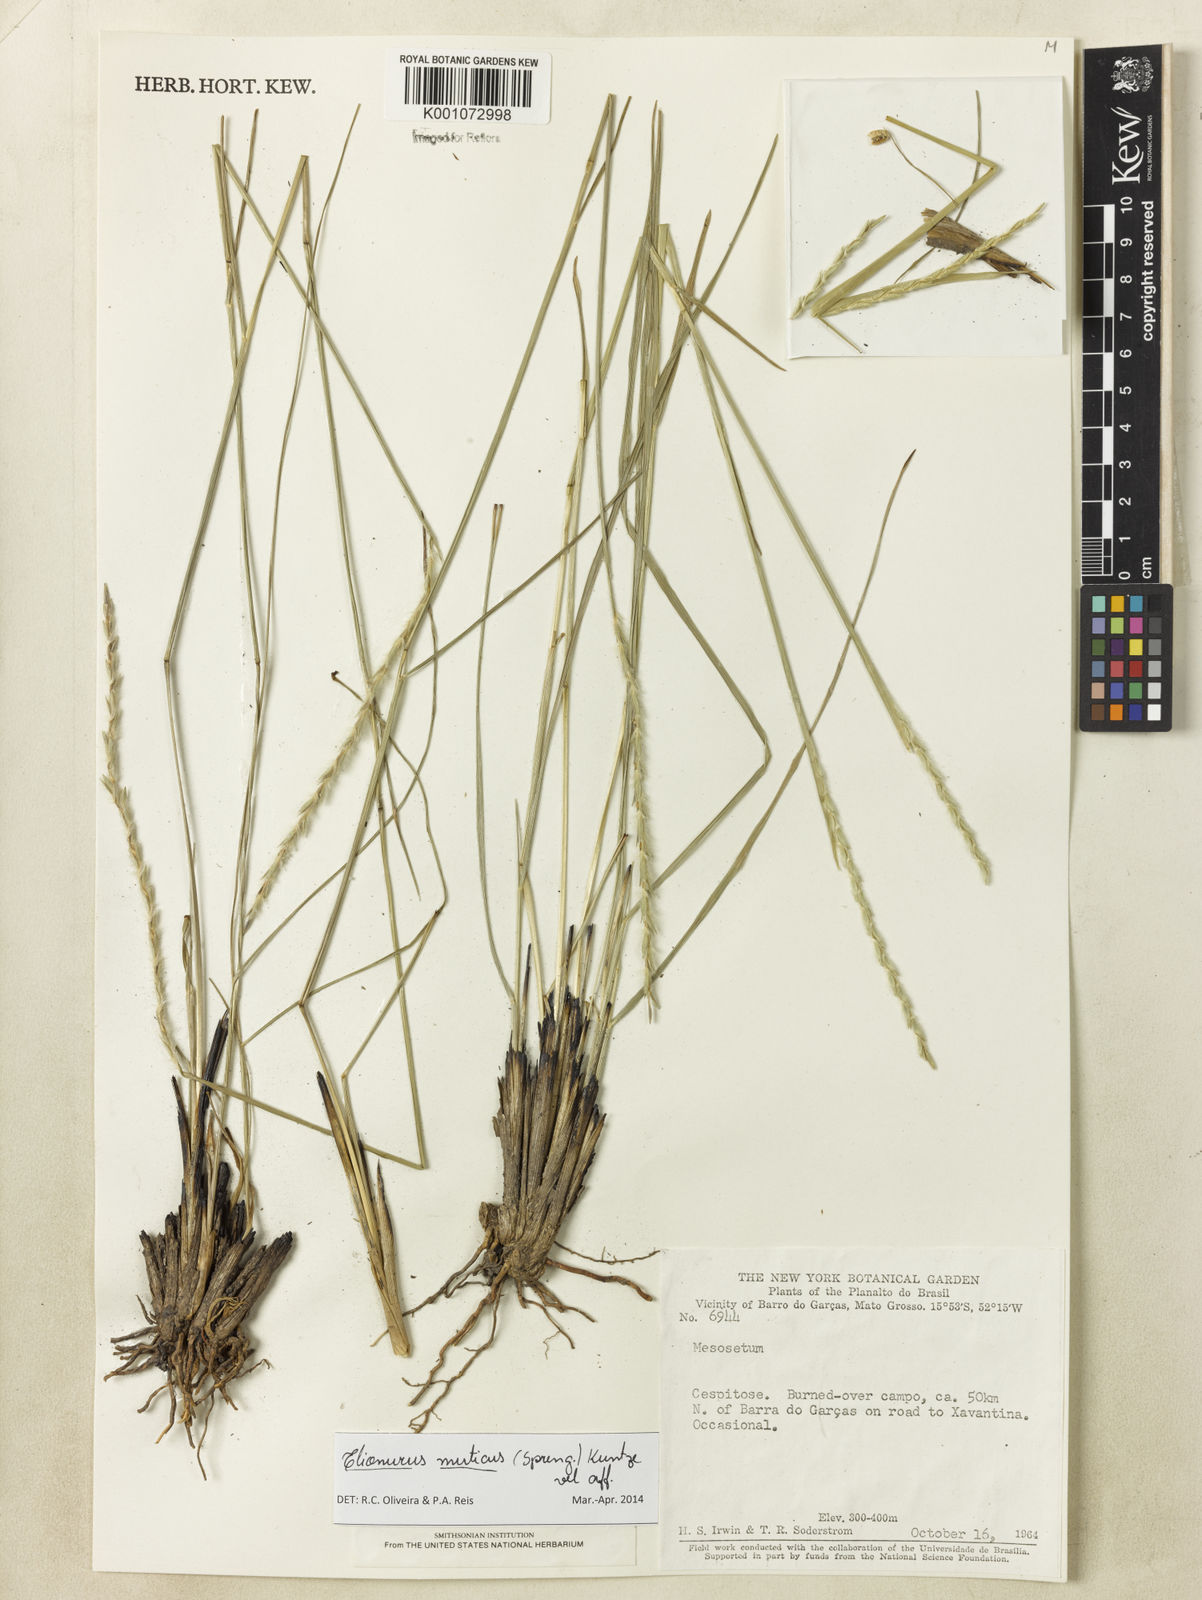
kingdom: Plantae
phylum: Tracheophyta
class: Liliopsida
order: Poales
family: Poaceae
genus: Elionurus
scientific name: Elionurus muticus
